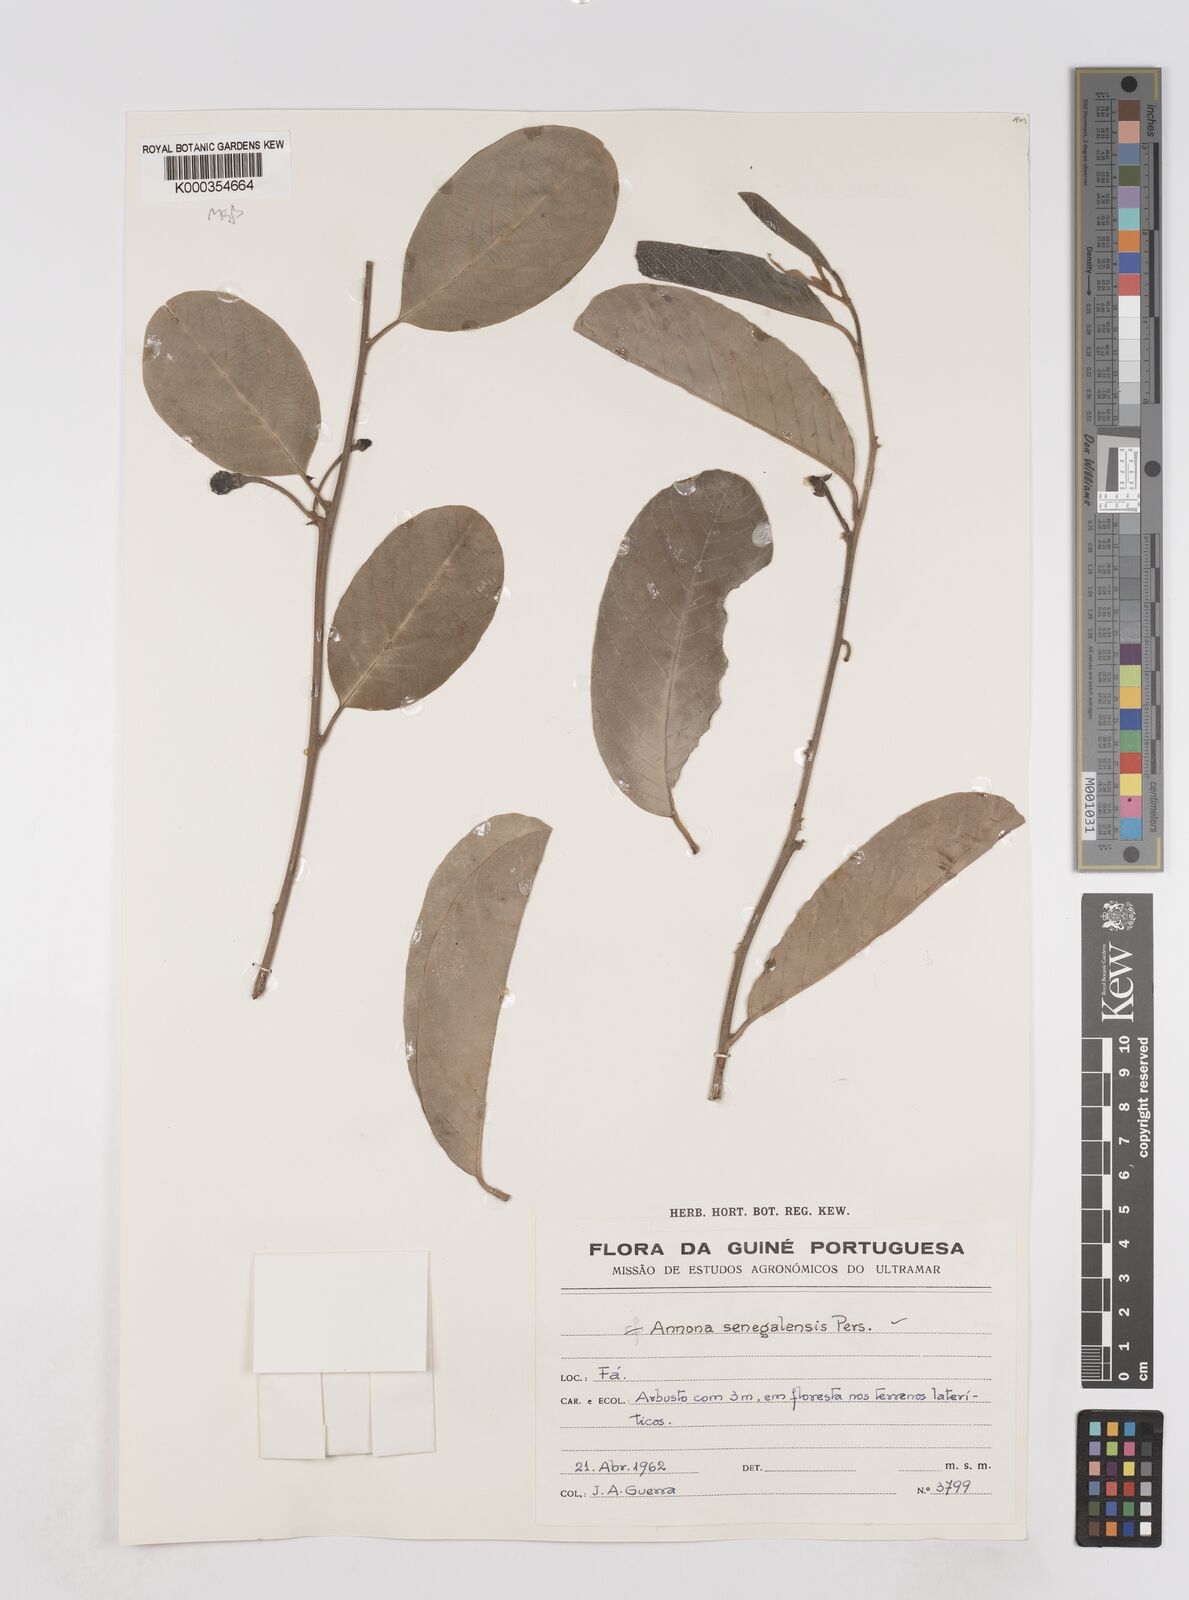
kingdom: Plantae
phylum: Tracheophyta
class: Magnoliopsida
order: Magnoliales
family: Annonaceae
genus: Annona
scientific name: Annona senegalensis
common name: Wild custard-apple
